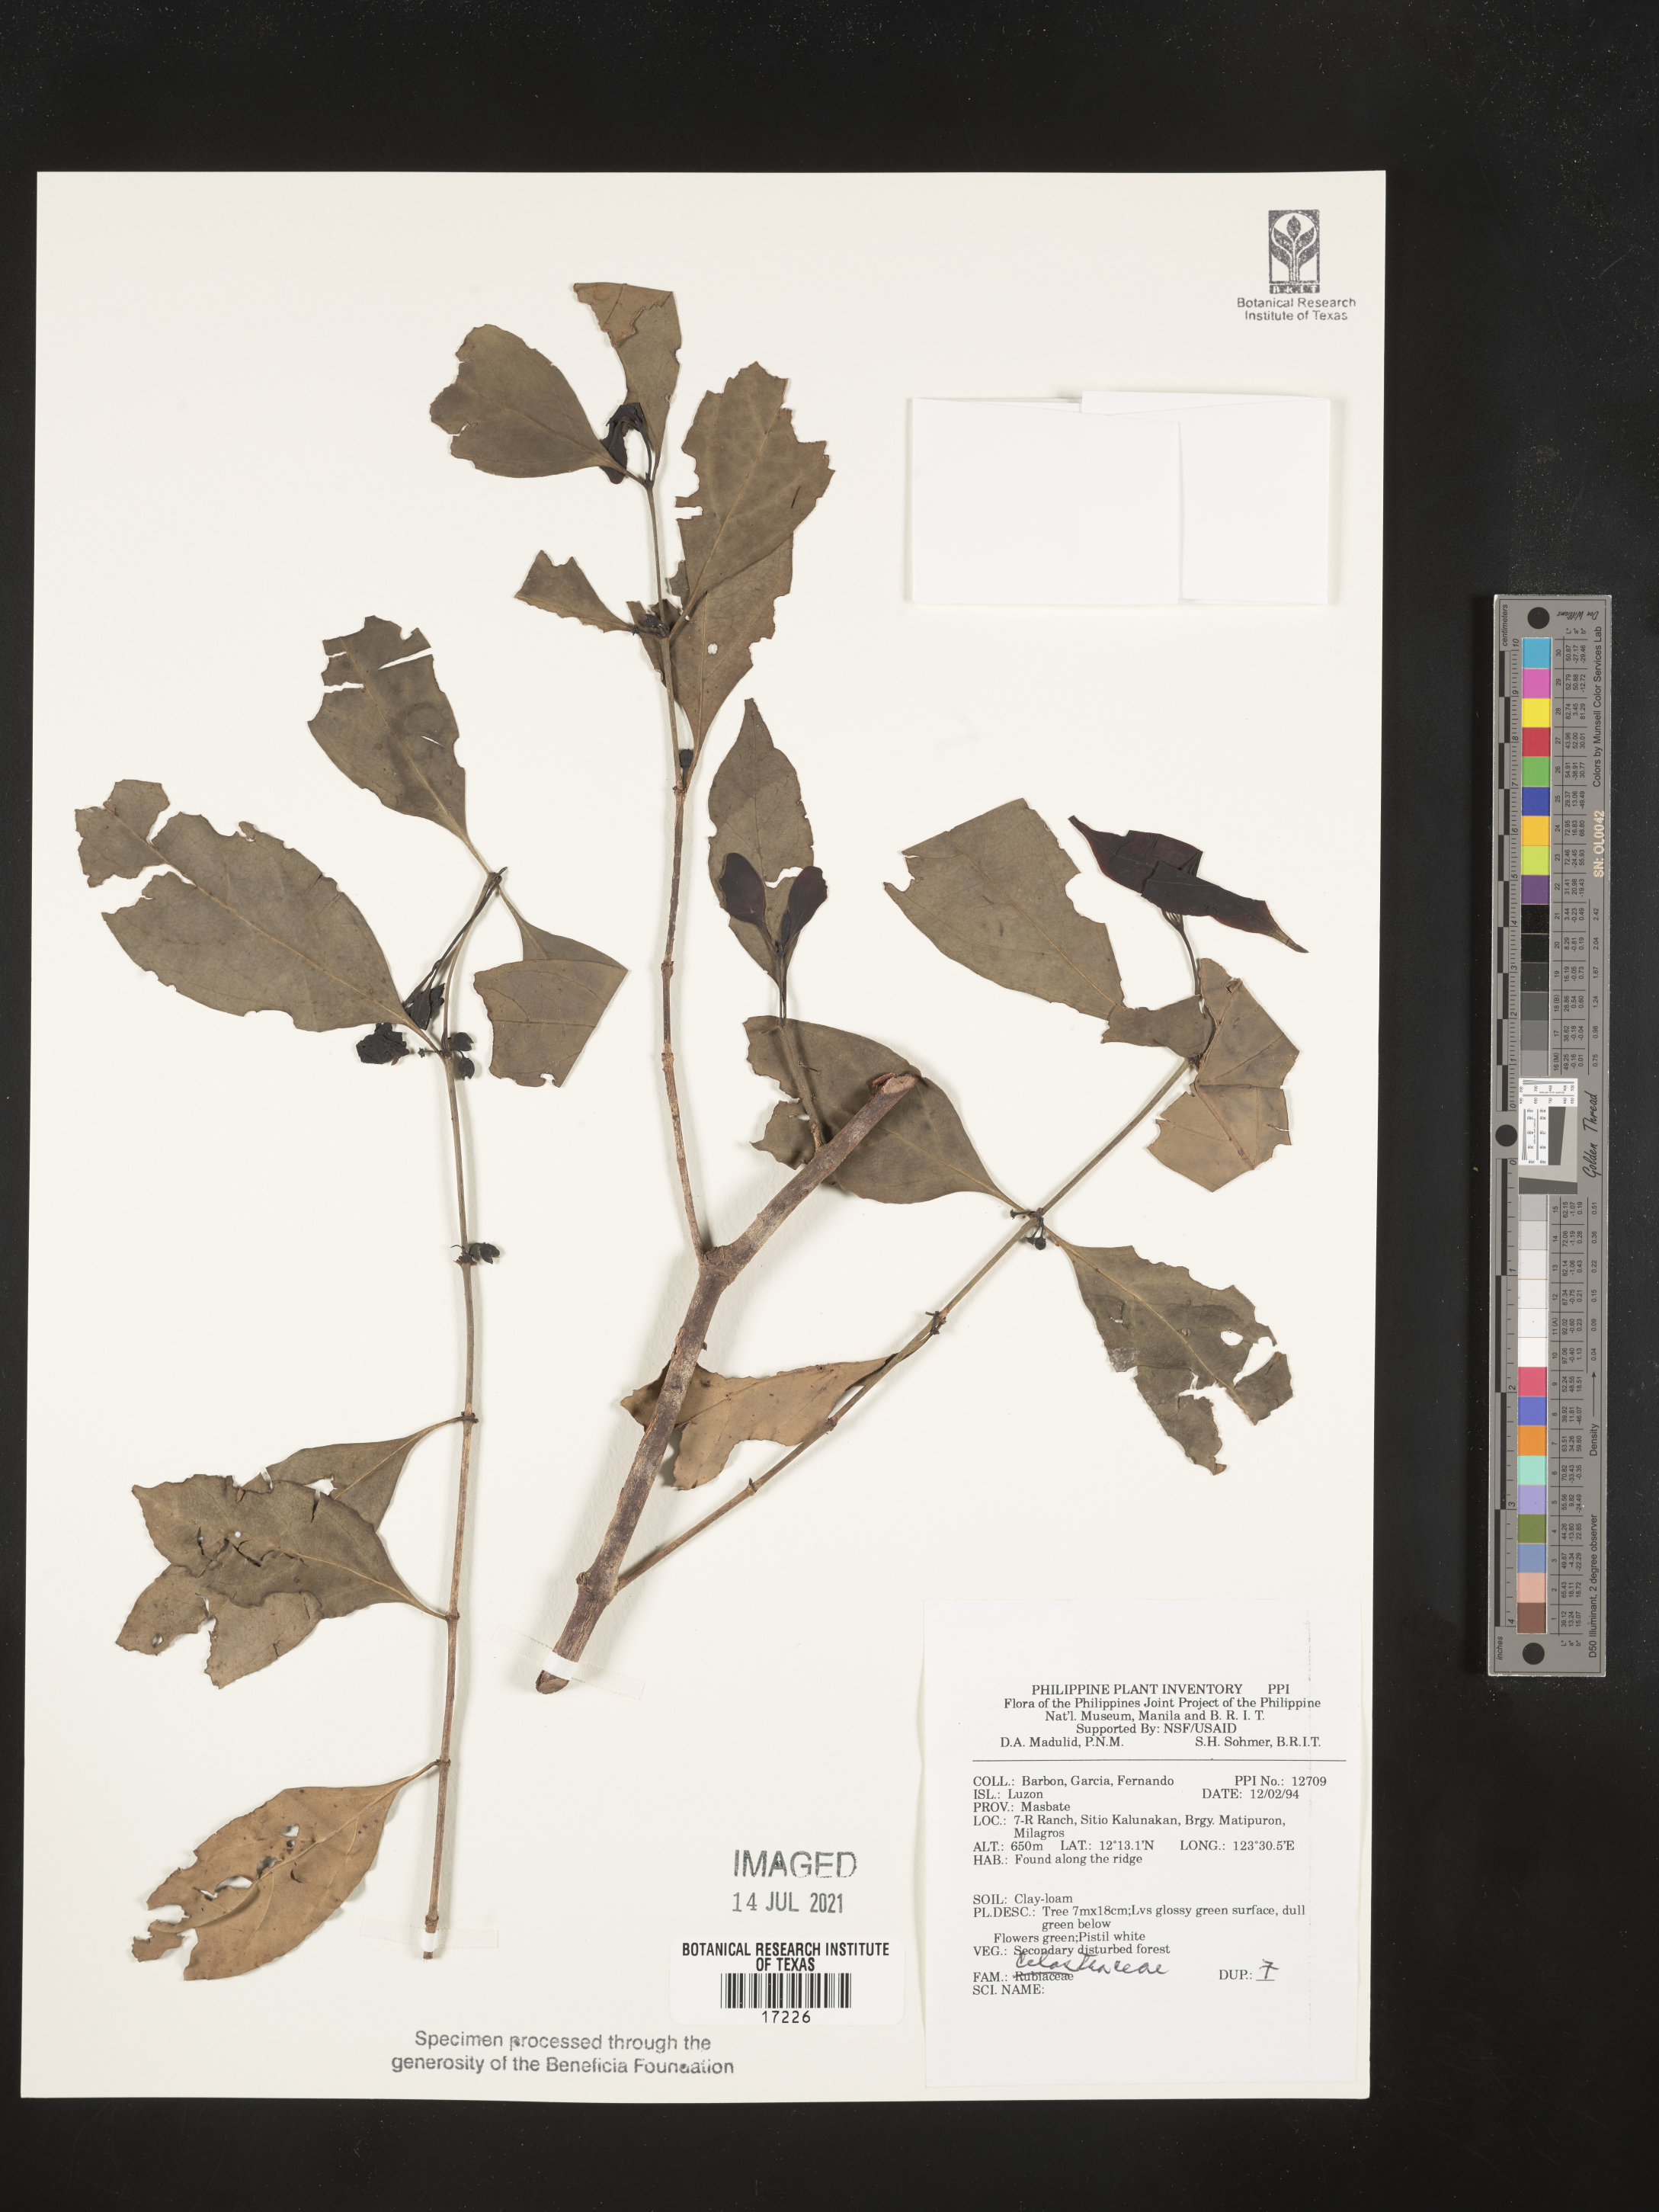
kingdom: Plantae
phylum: Tracheophyta
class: Magnoliopsida
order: Celastrales
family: Celastraceae
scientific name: Celastraceae
